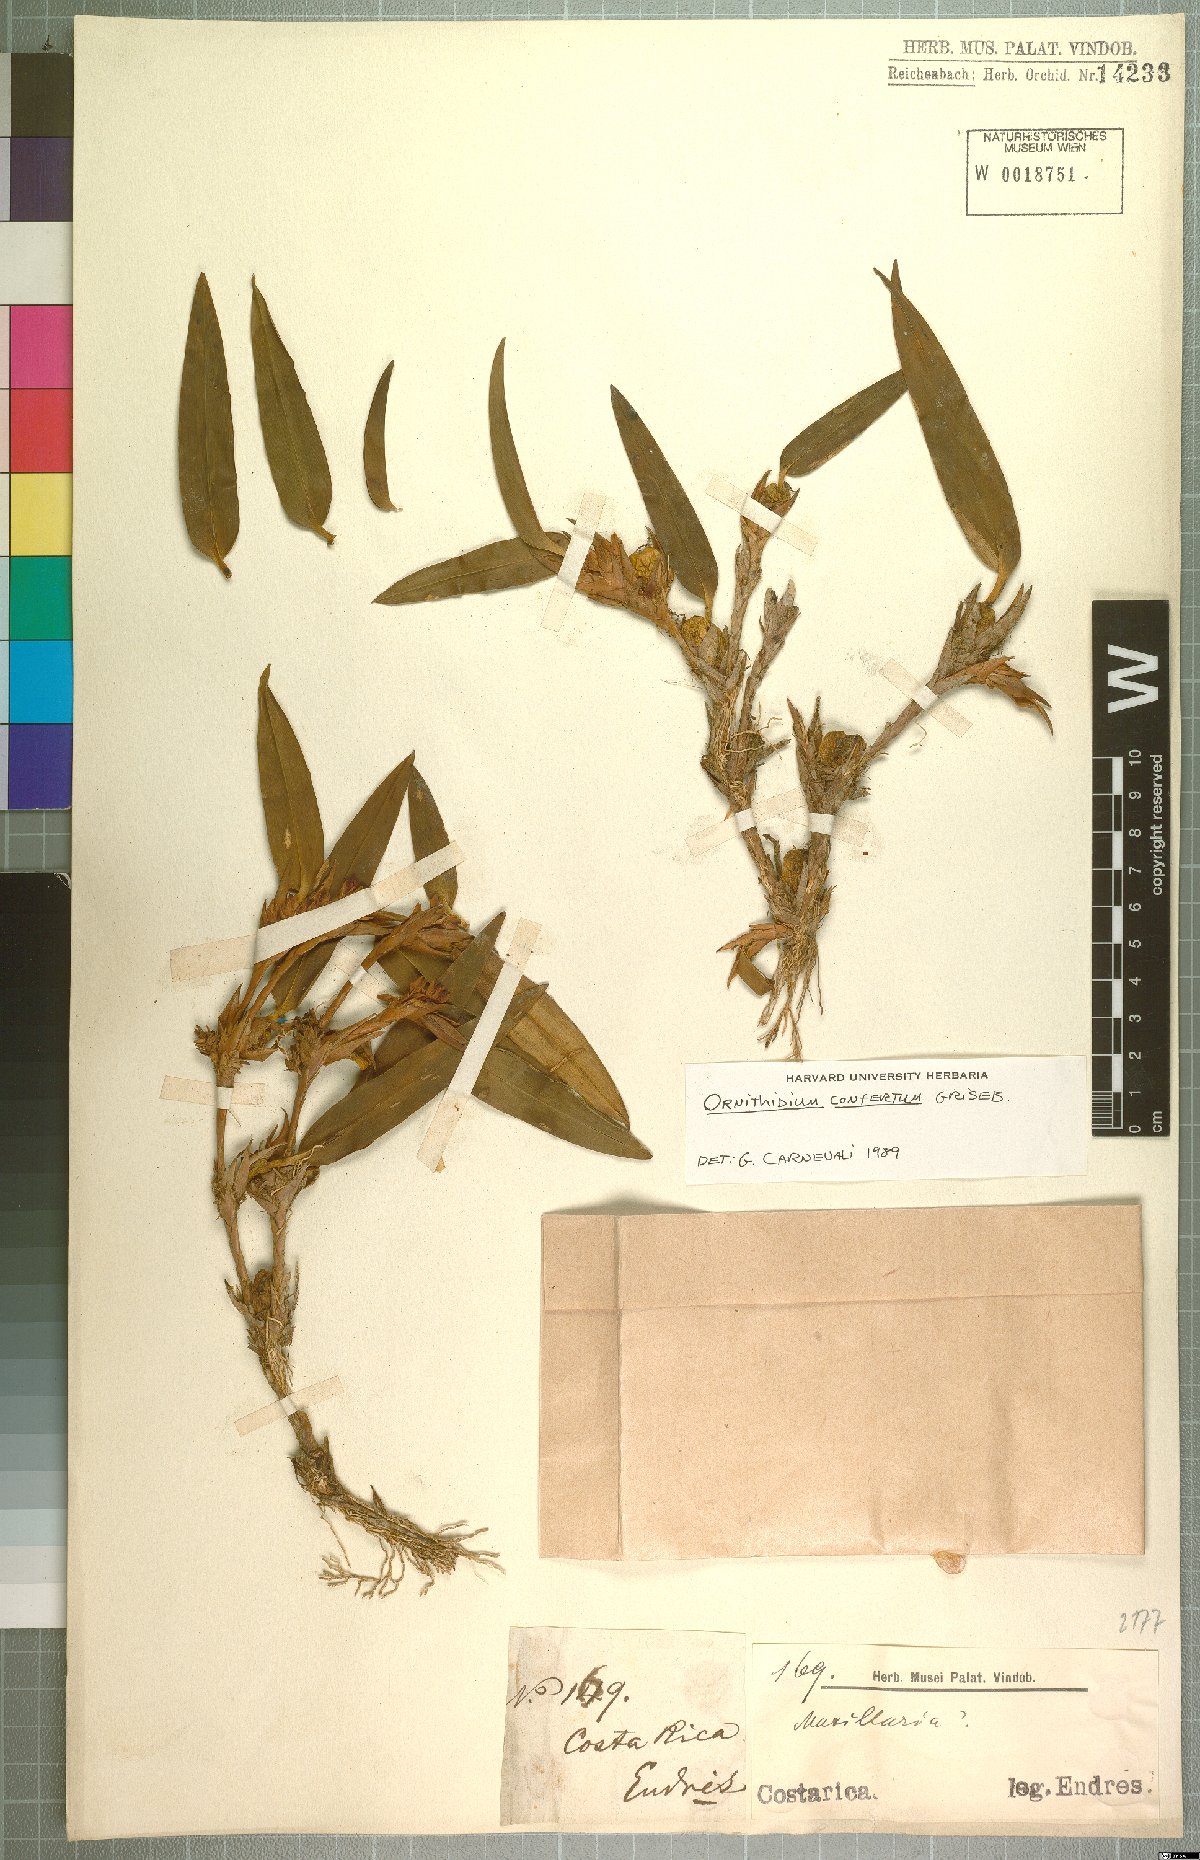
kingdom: Plantae
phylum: Tracheophyta
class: Liliopsida
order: Asparagales
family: Orchidaceae
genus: Maxillaria
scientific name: Maxillaria parviflora
